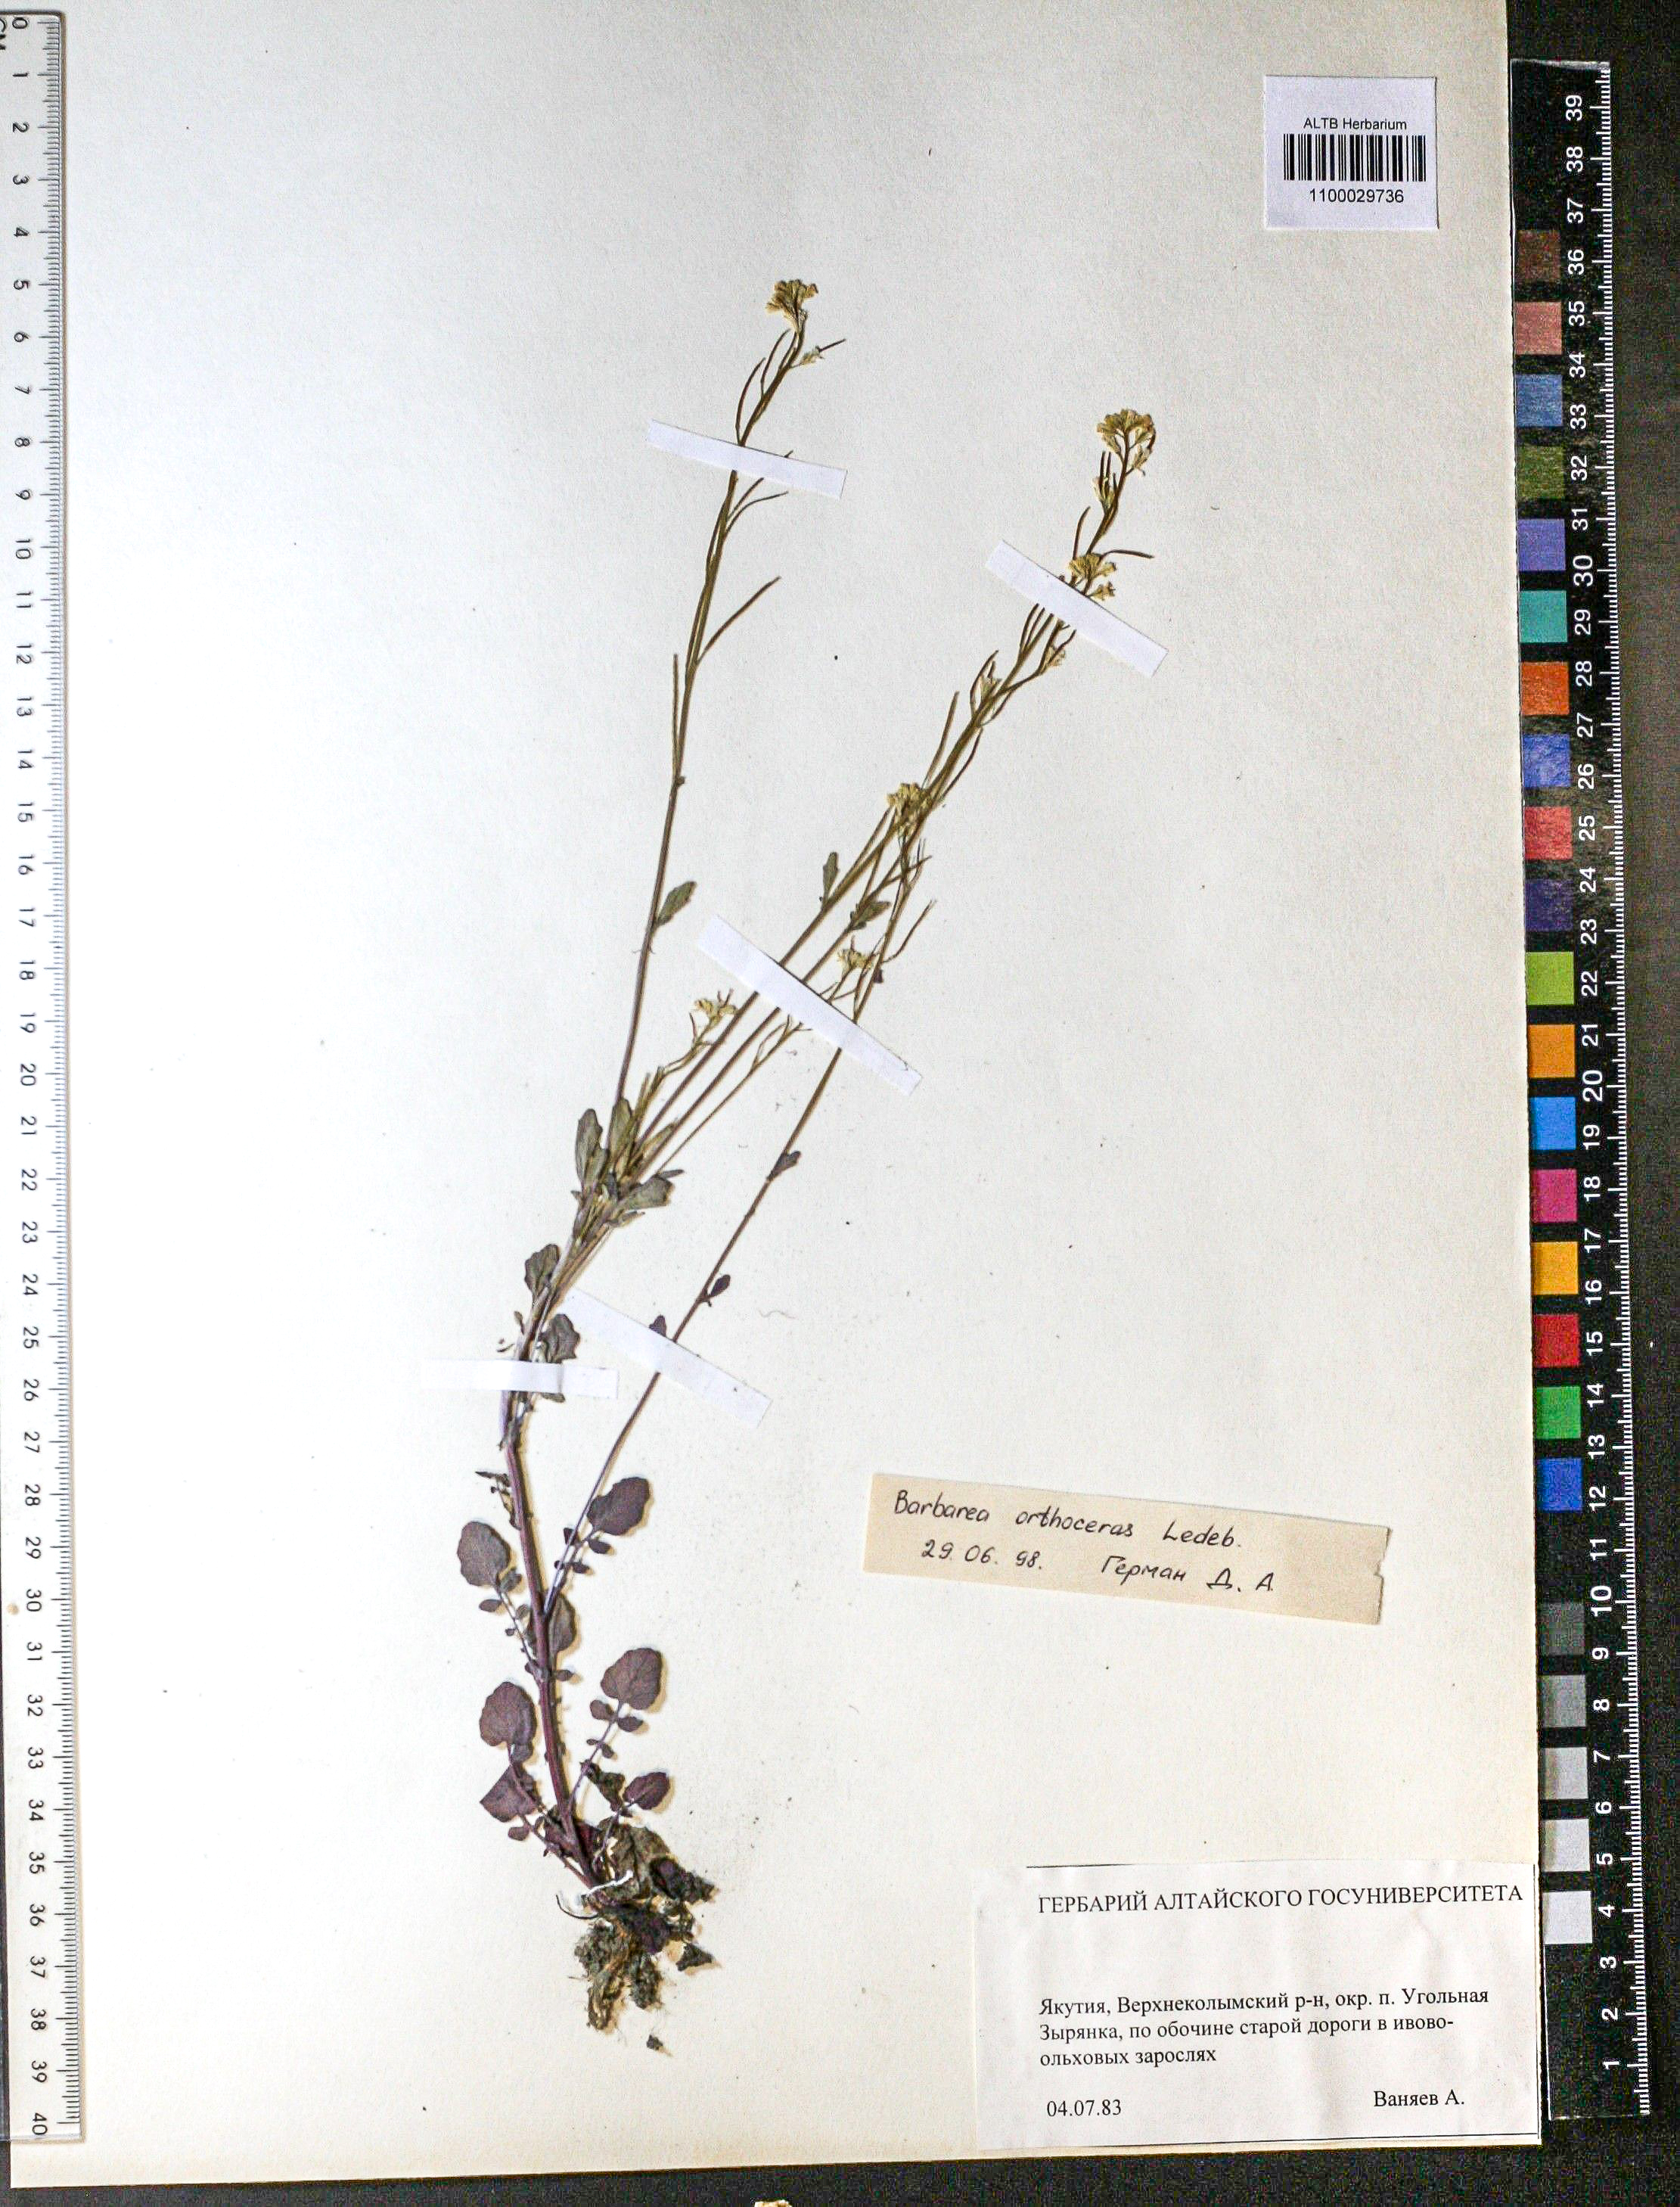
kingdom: Plantae
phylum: Tracheophyta
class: Magnoliopsida
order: Brassicales
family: Brassicaceae
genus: Barbarea
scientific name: Barbarea orthoceras
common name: American wintercress
